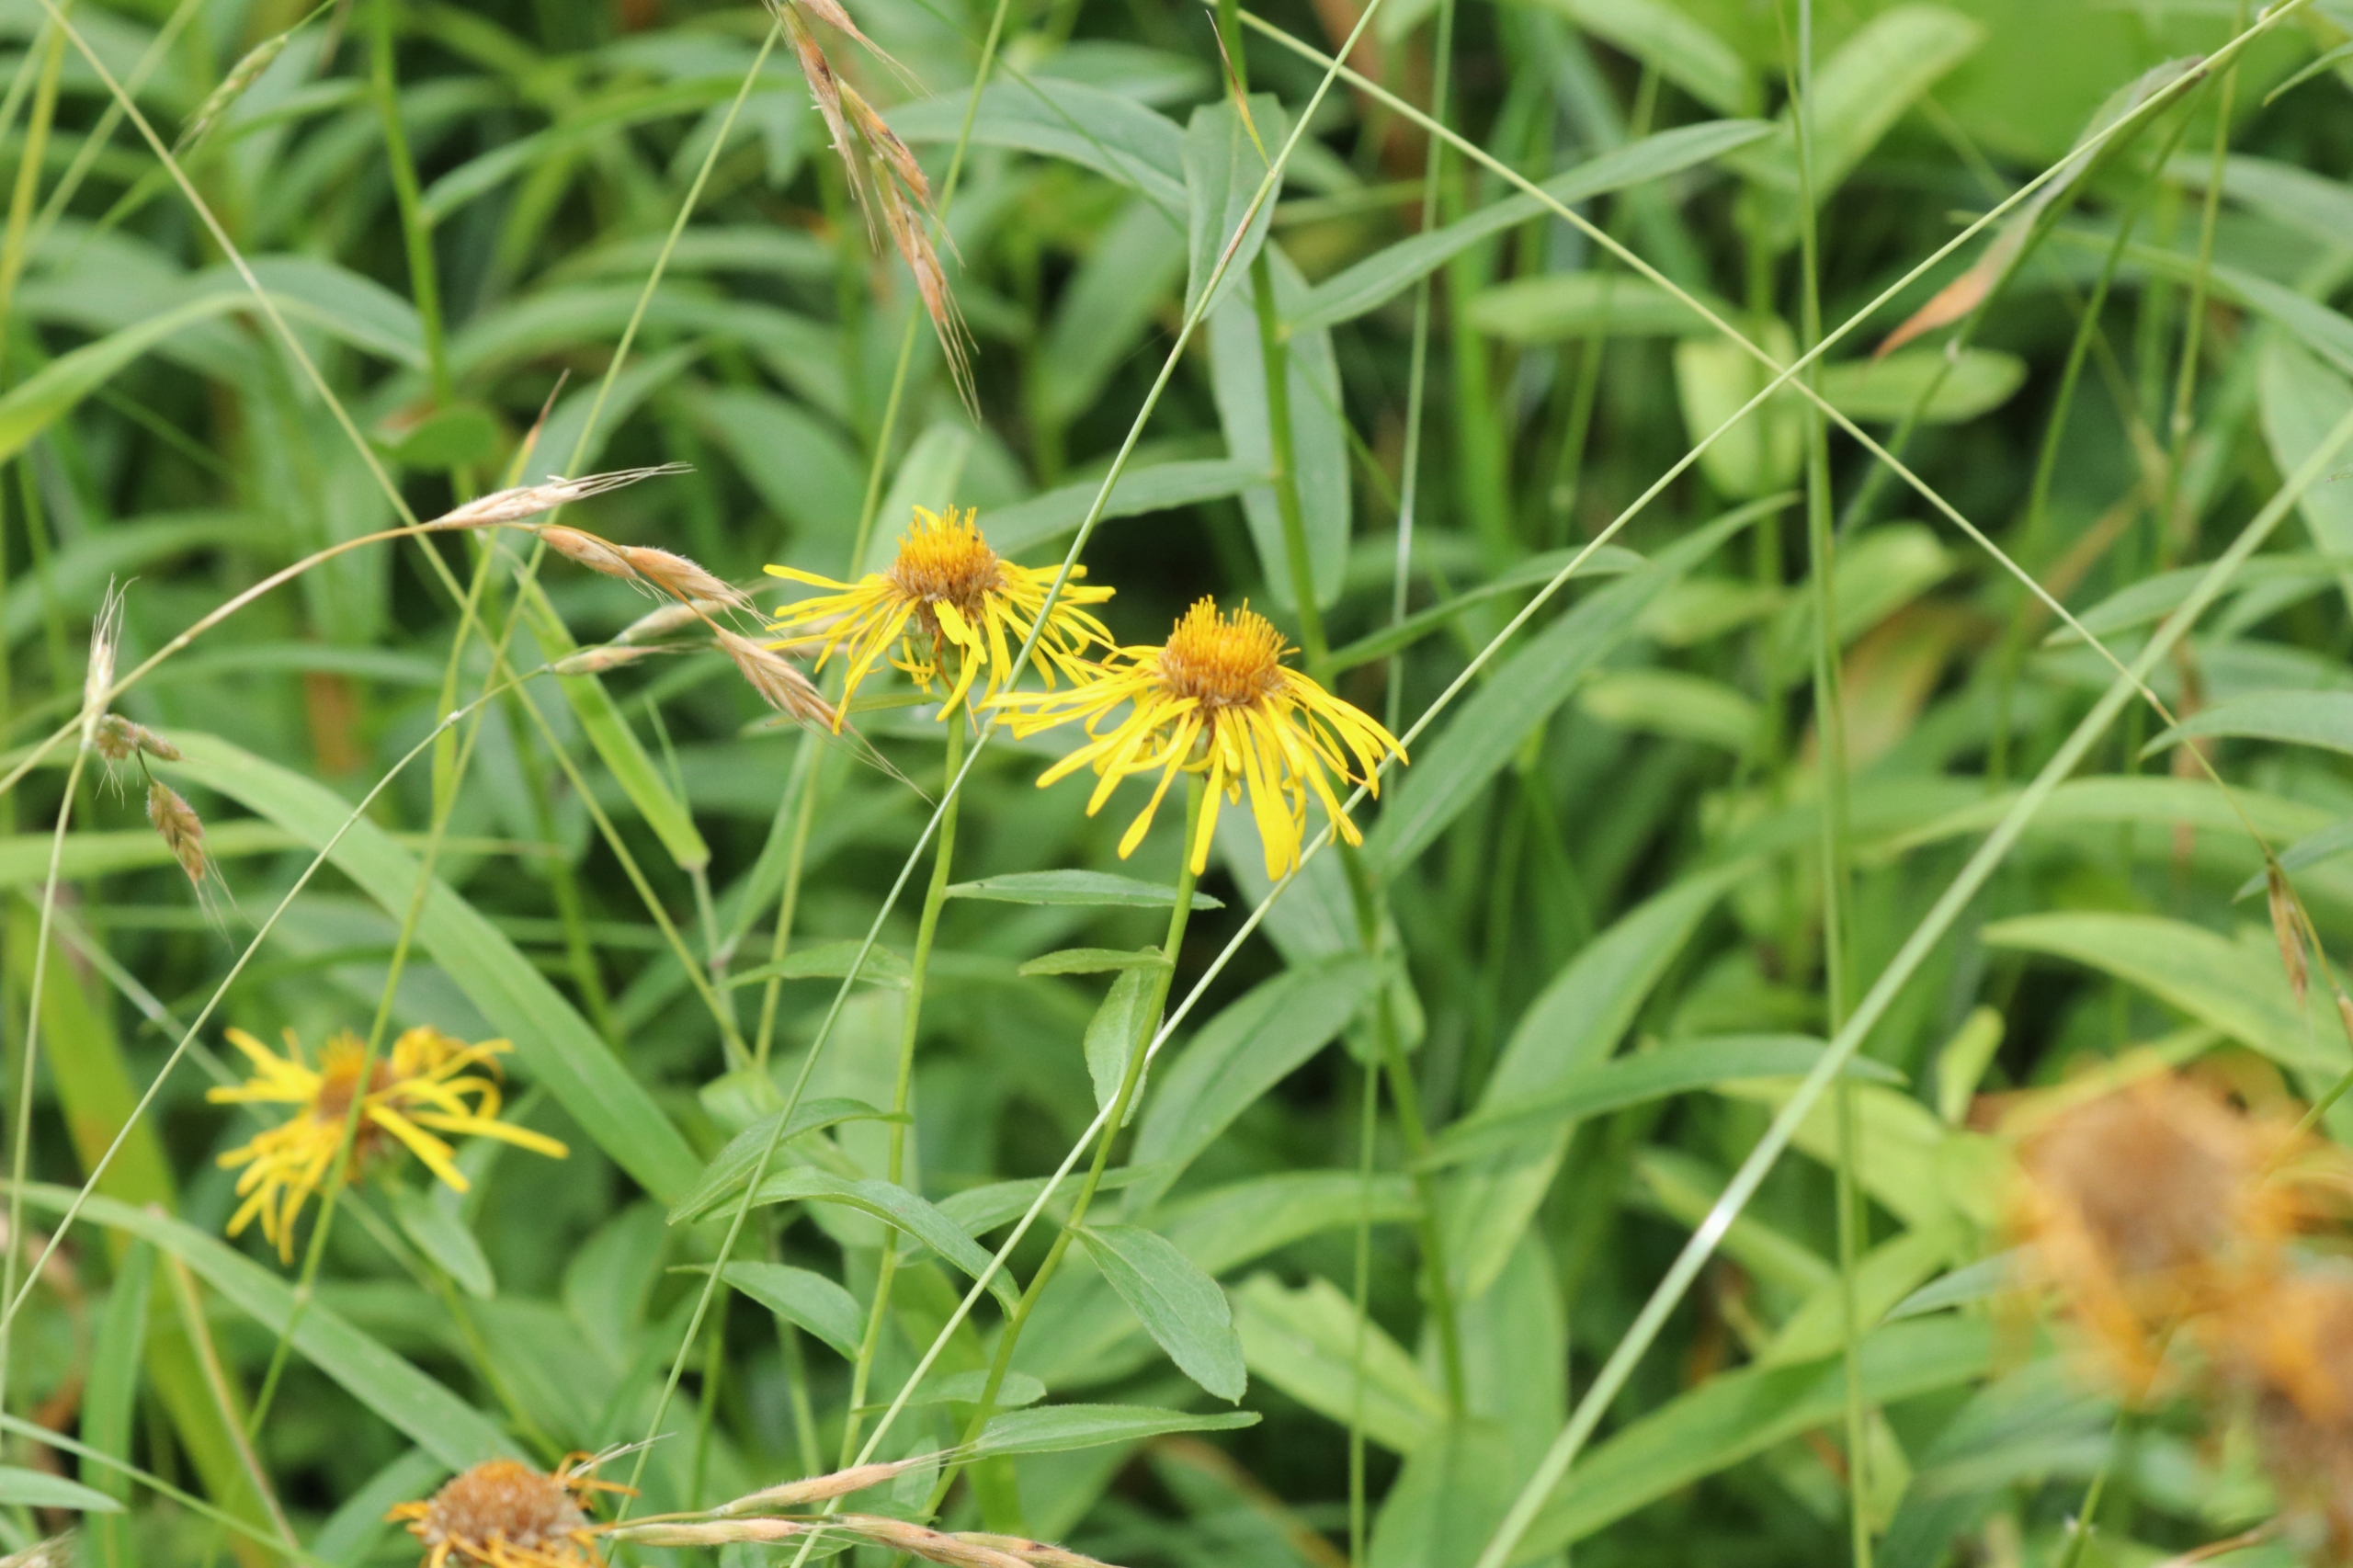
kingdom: Plantae
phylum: Tracheophyta
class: Magnoliopsida
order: Asterales
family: Asteraceae
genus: Pentanema
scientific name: Pentanema salicinum
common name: Pile-alant
